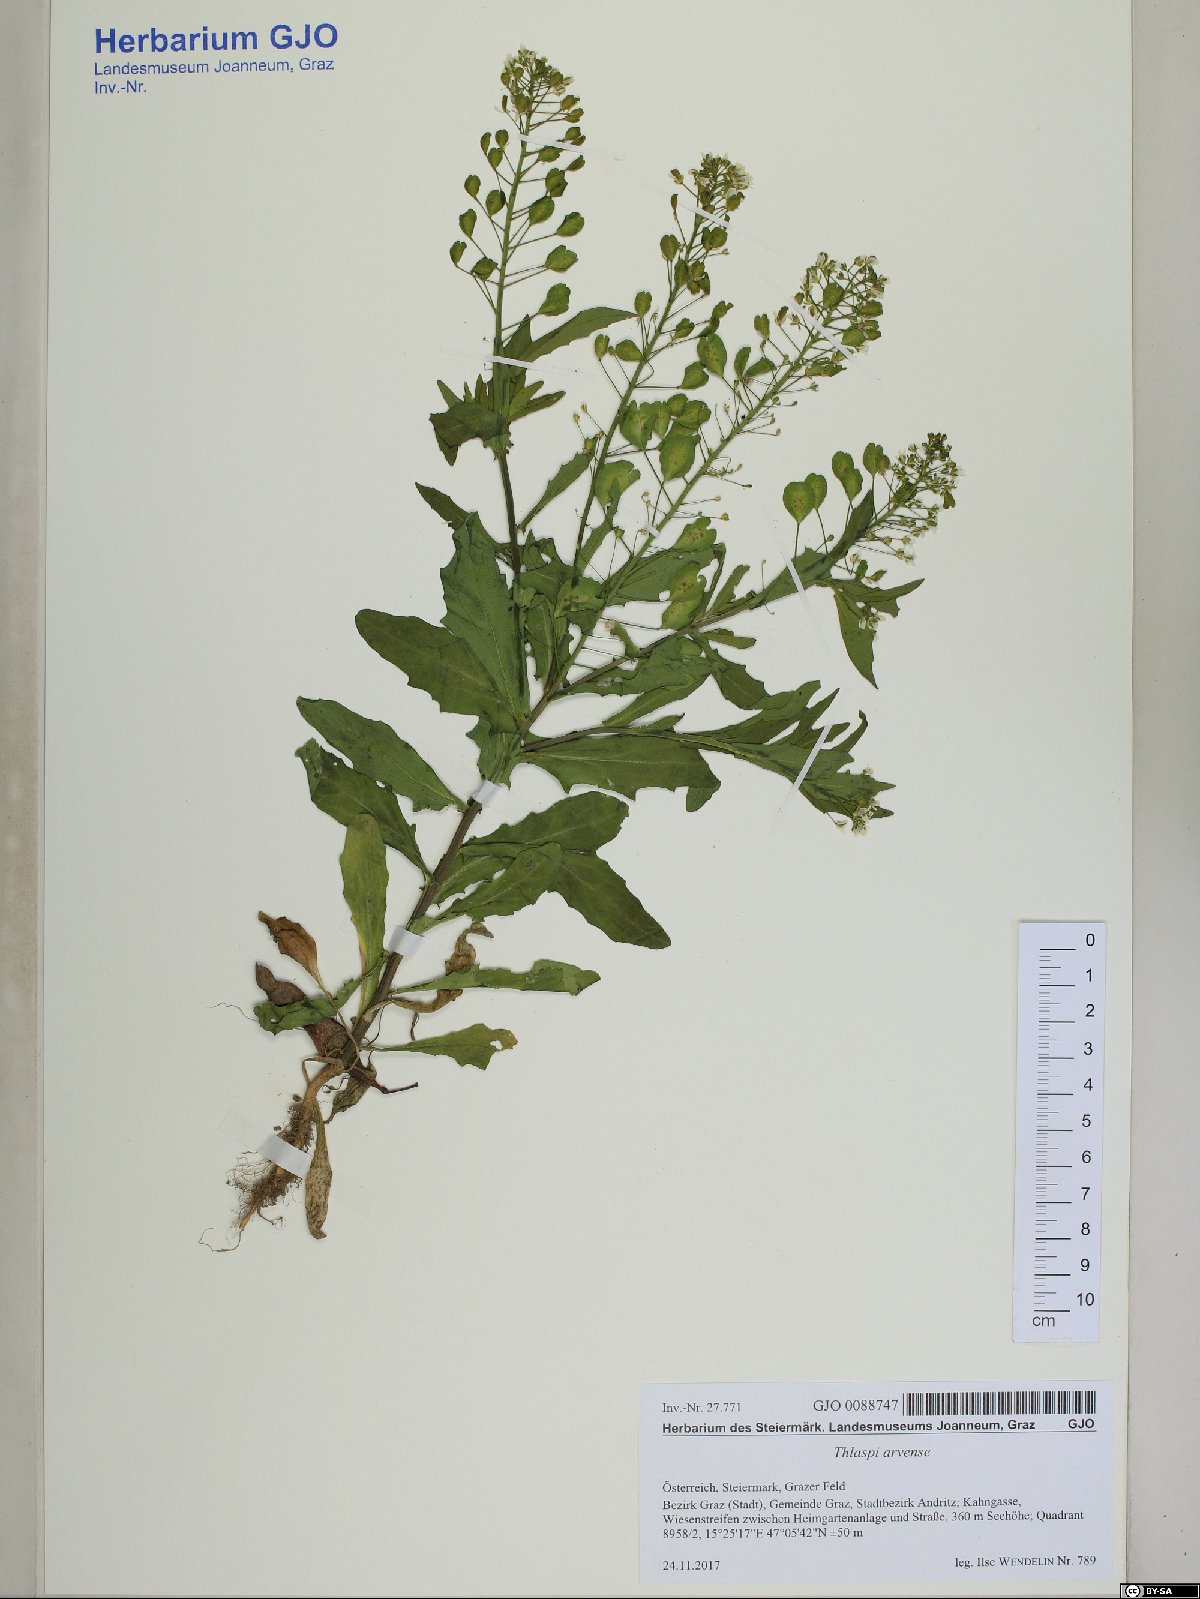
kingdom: Plantae
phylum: Tracheophyta
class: Magnoliopsida
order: Brassicales
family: Brassicaceae
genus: Thlaspi
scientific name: Thlaspi arvense
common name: Field pennycress
